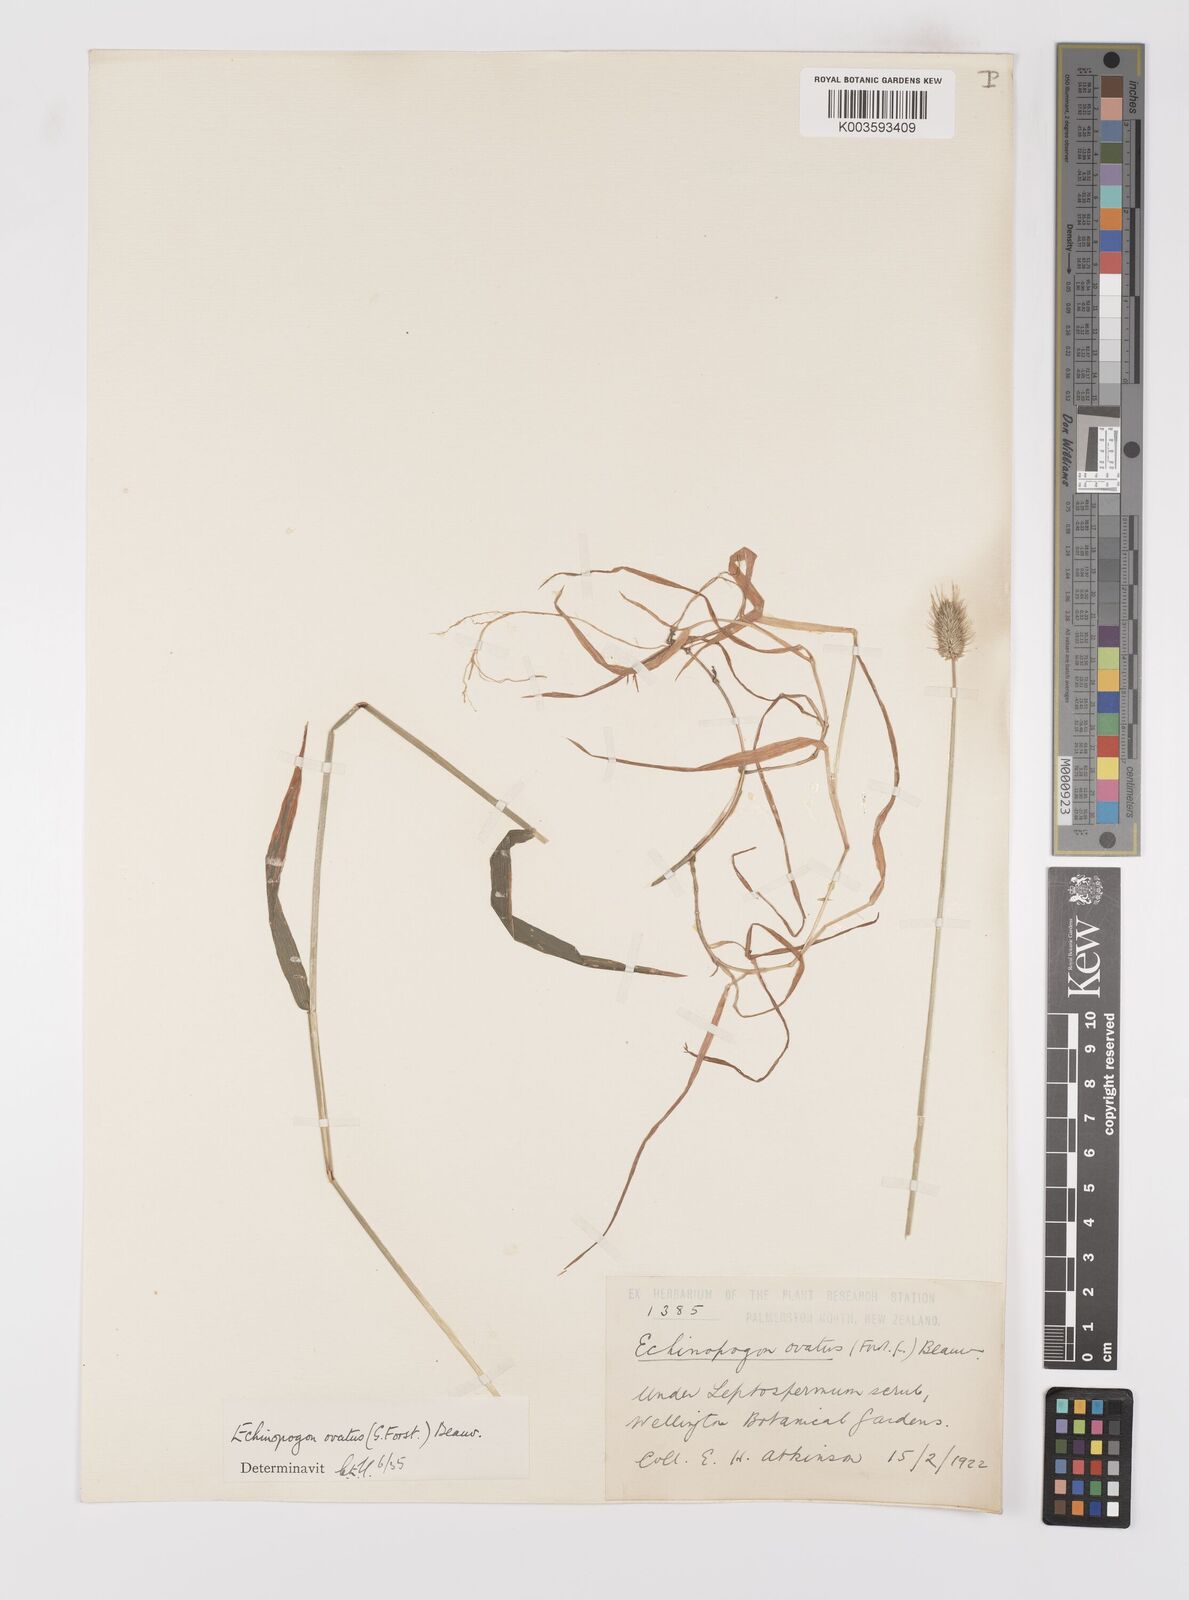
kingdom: Plantae
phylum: Tracheophyta
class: Liliopsida
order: Poales
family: Poaceae
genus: Echinopogon
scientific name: Echinopogon ovatus
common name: Hedgehog-grass
